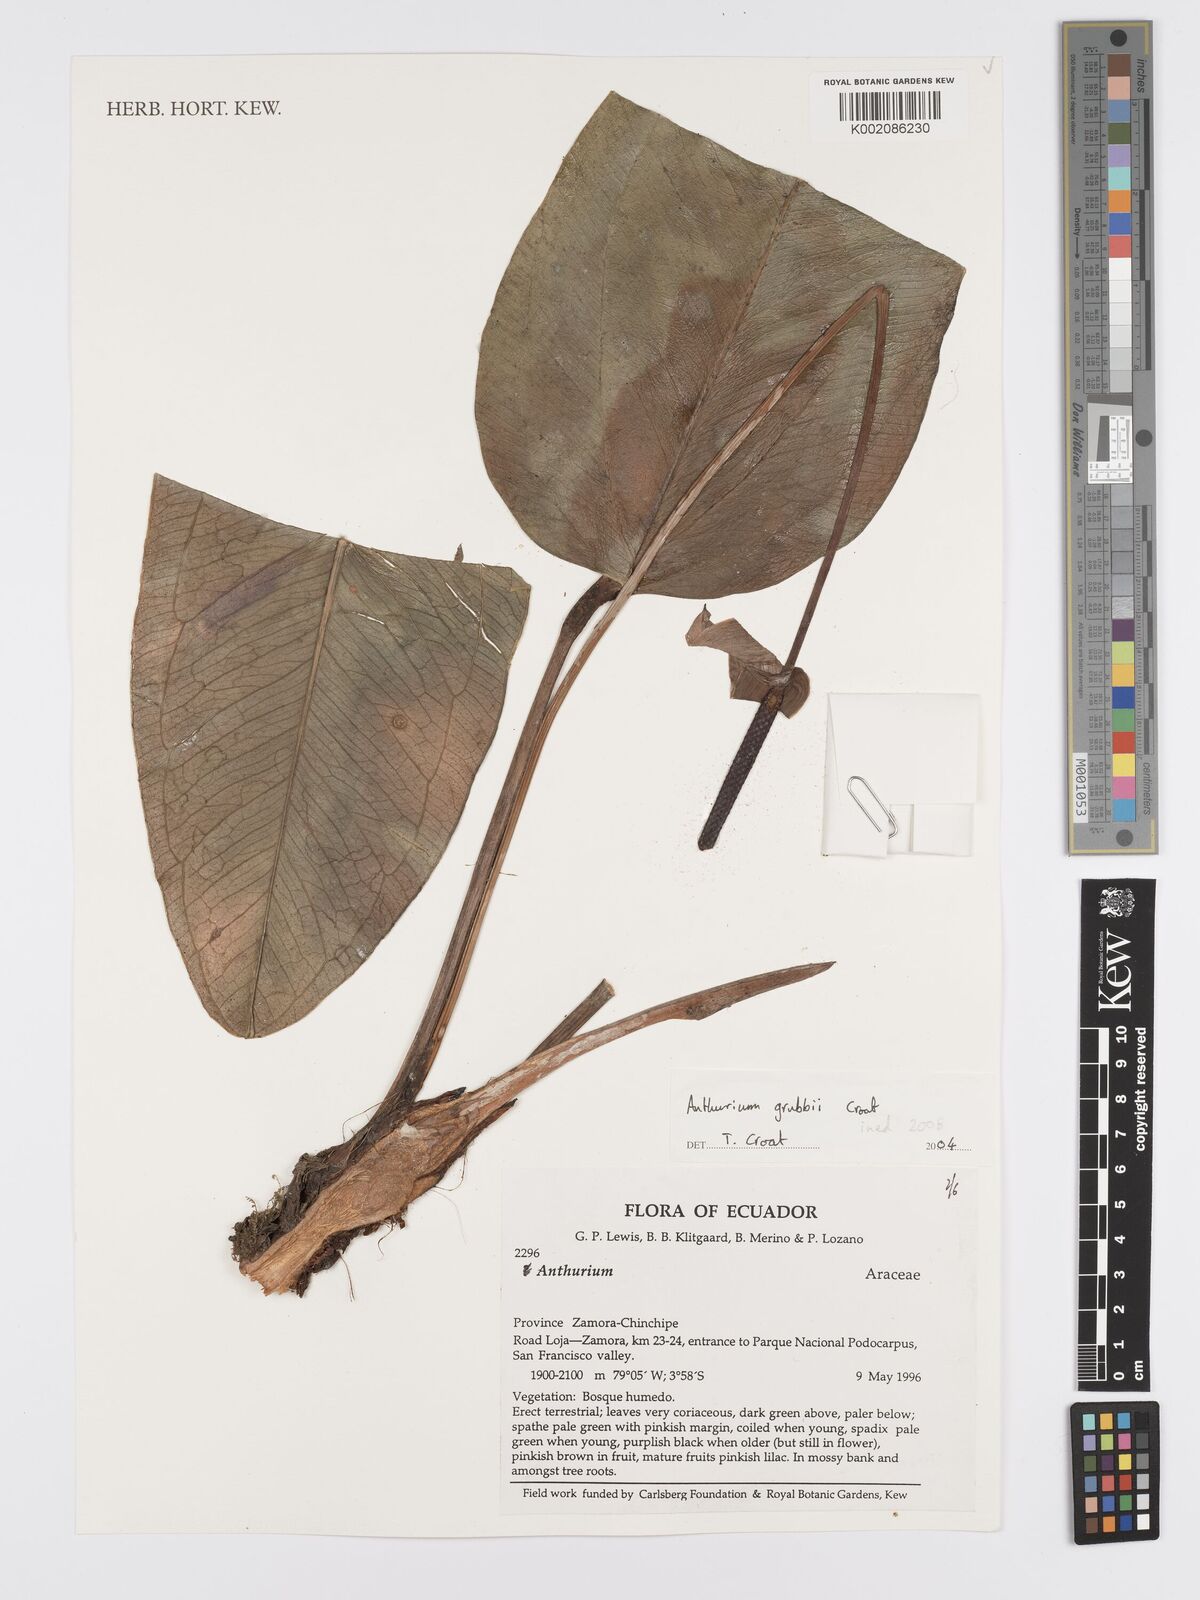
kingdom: Plantae
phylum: Tracheophyta
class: Liliopsida
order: Alismatales
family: Araceae
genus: Anthurium
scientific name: Anthurium
